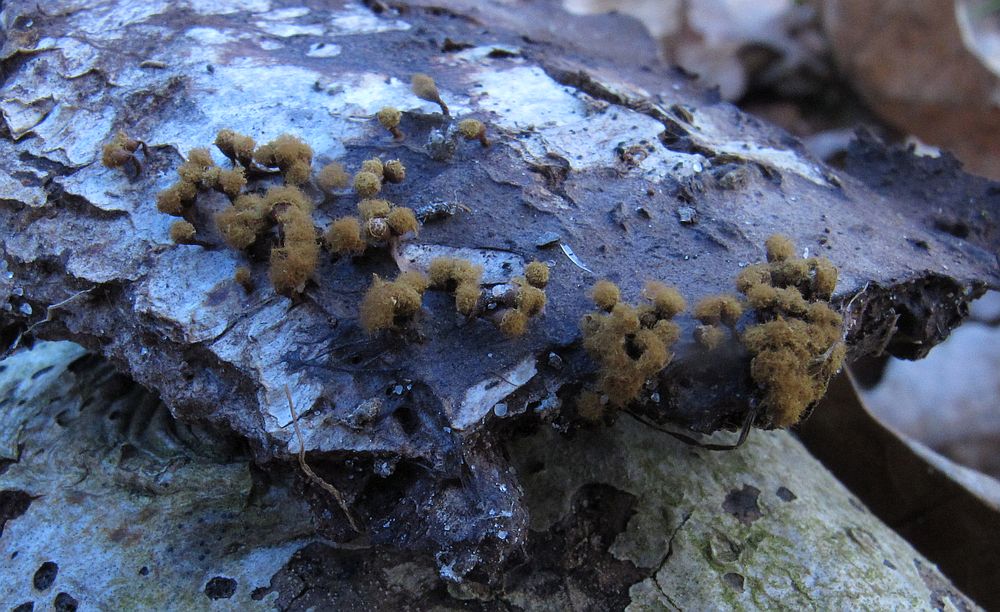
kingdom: Protozoa
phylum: Mycetozoa
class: Myxomycetes
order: Trichiales
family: Trichiaceae
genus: Trichia
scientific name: Trichia botrytis
